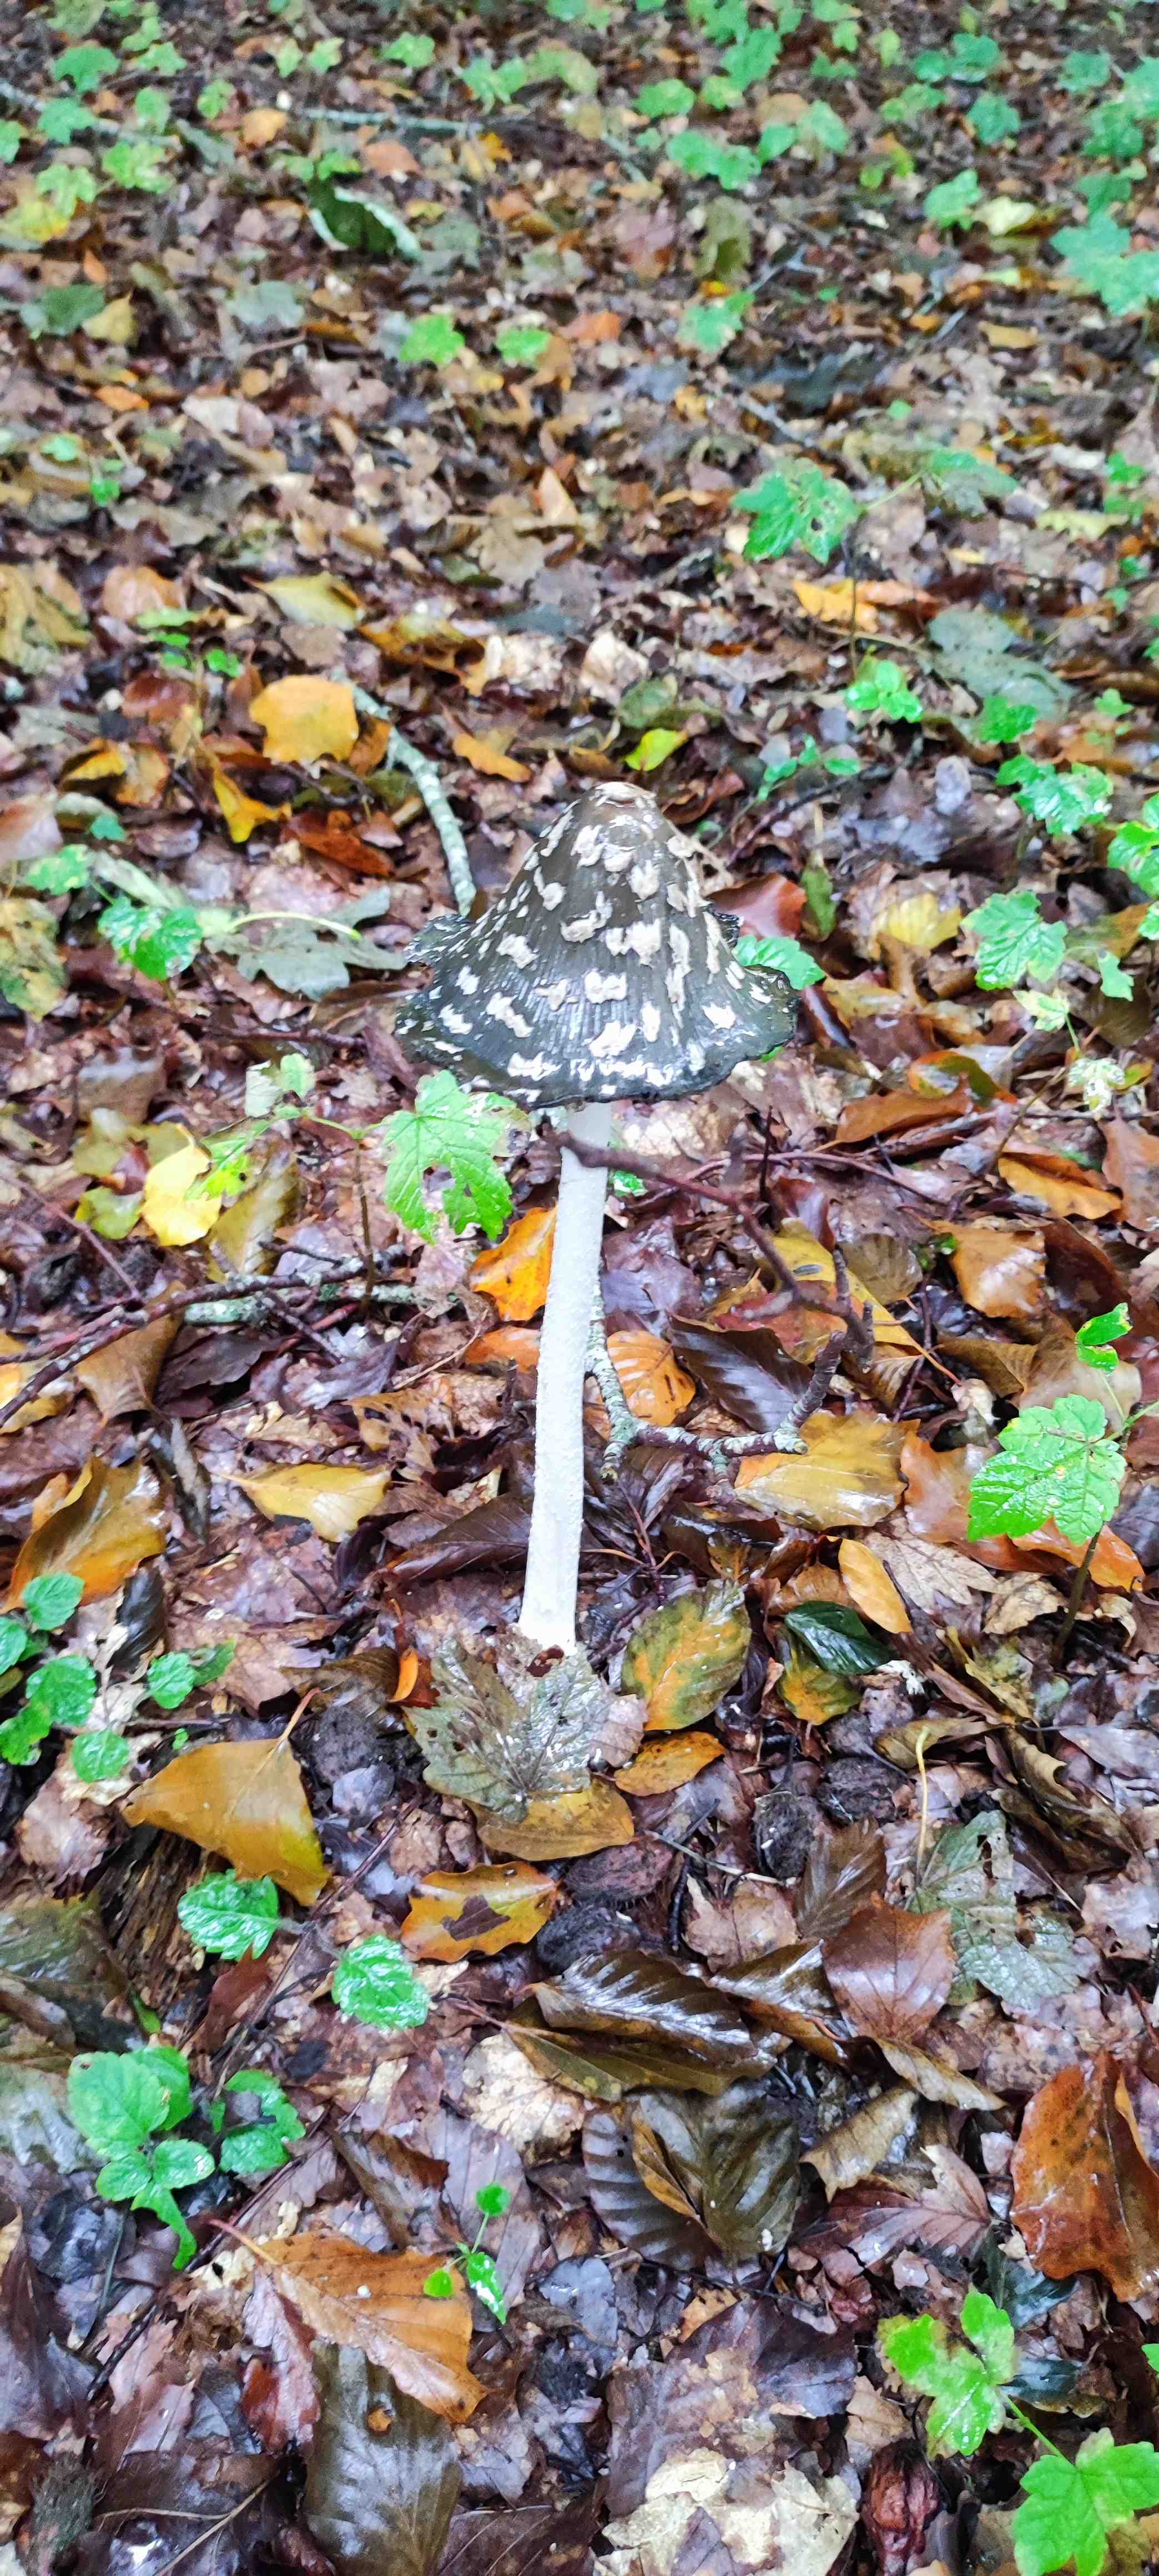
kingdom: Fungi
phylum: Basidiomycota
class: Agaricomycetes
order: Agaricales
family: Psathyrellaceae
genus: Coprinopsis
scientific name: Coprinopsis picacea
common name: skade-blækhat
